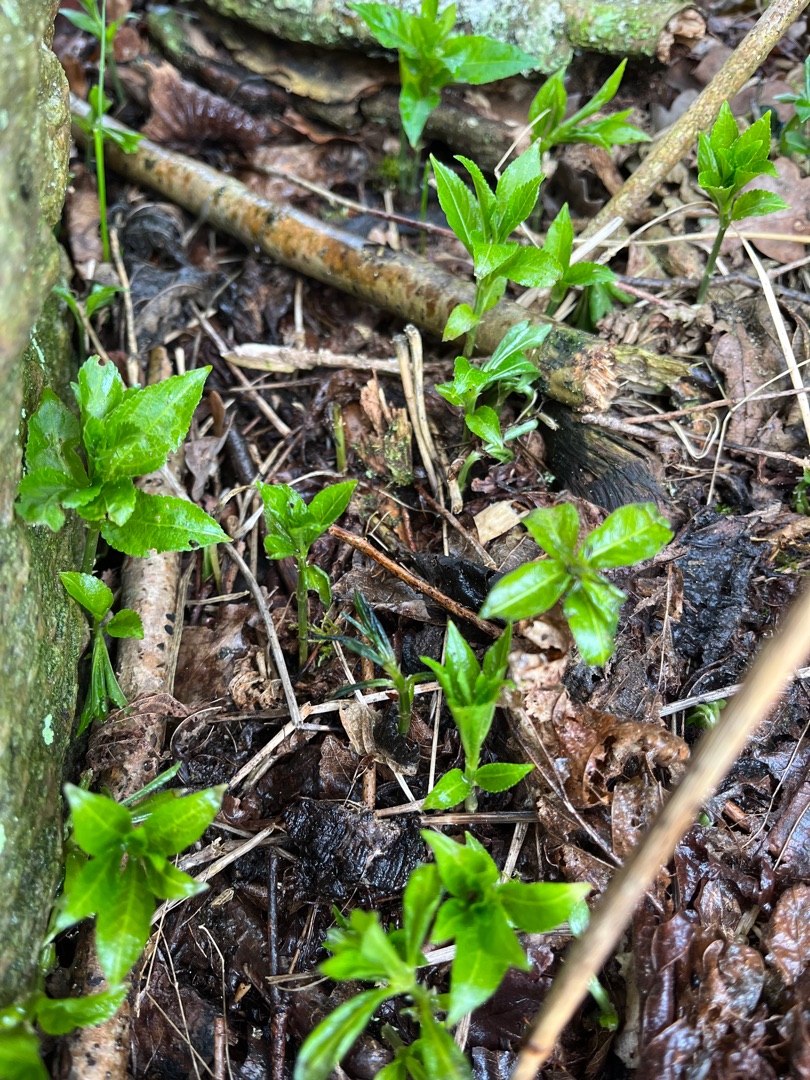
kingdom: Plantae
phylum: Tracheophyta
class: Magnoliopsida
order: Malpighiales
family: Euphorbiaceae
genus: Mercurialis
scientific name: Mercurialis perennis
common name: Almindelig bingelurt
